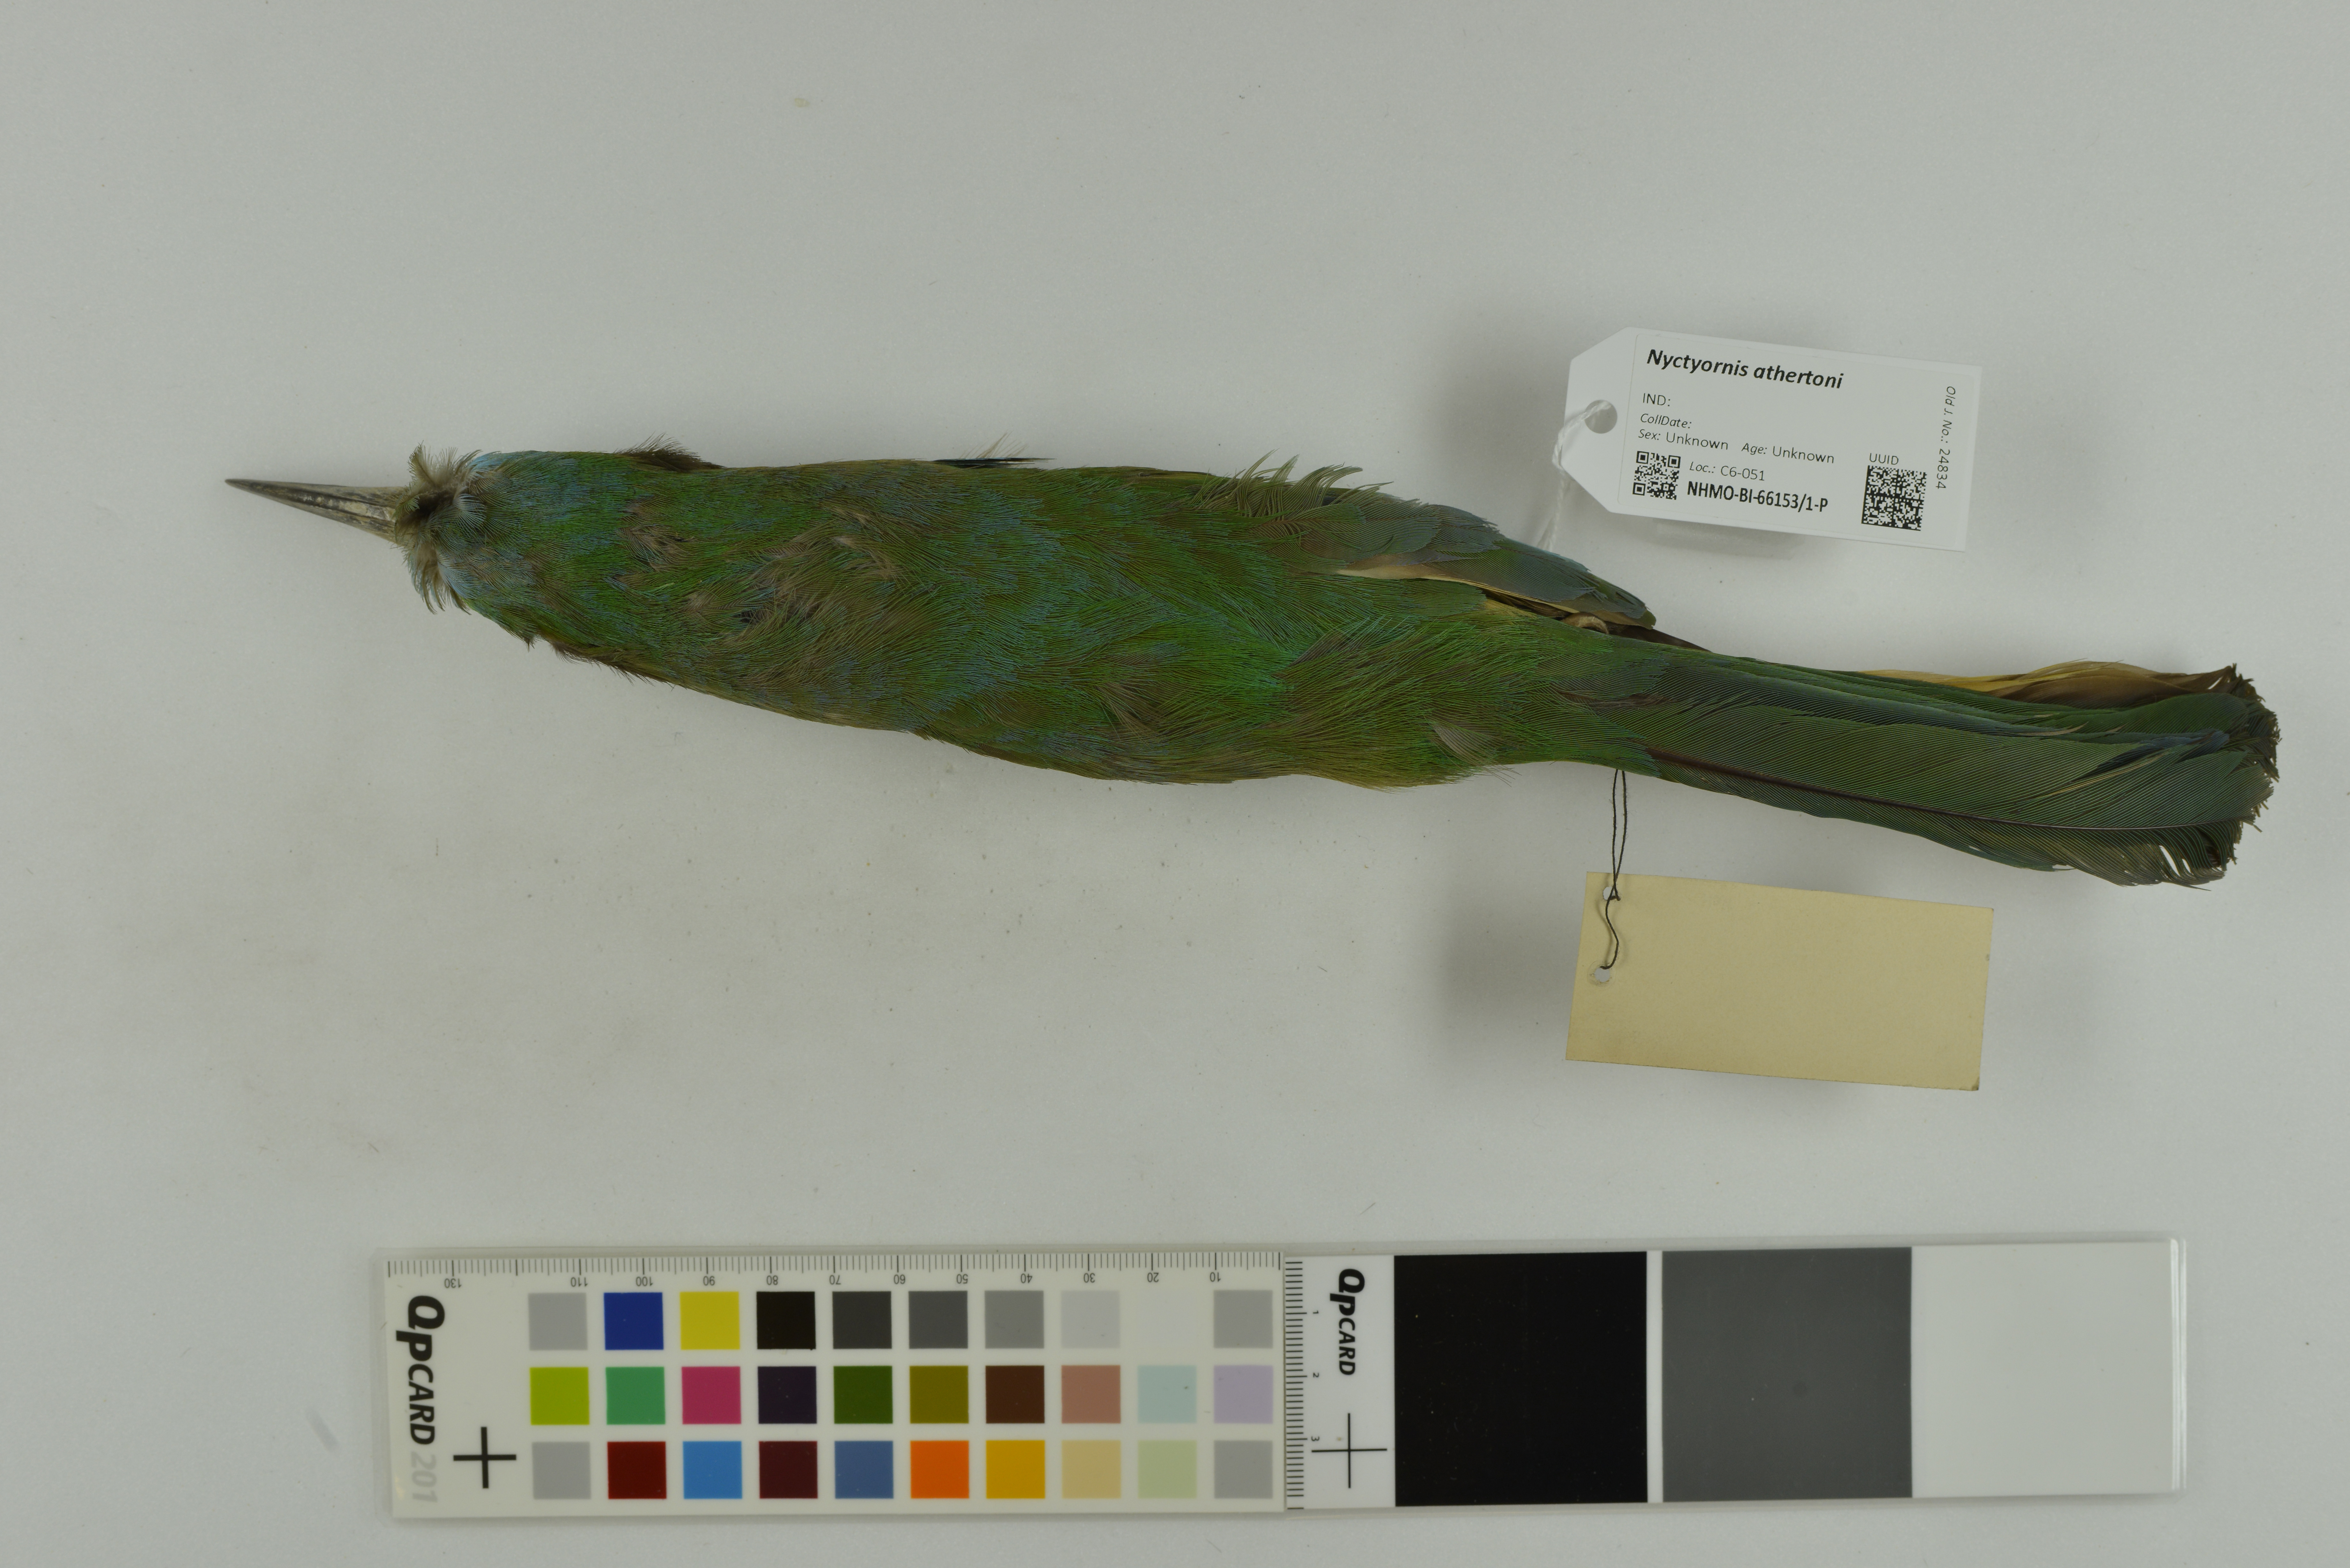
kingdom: Animalia
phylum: Chordata
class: Aves
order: Coraciiformes
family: Meropidae
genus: Nyctyornis
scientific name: Nyctyornis athertoni
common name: Blue-bearded bee-eater
